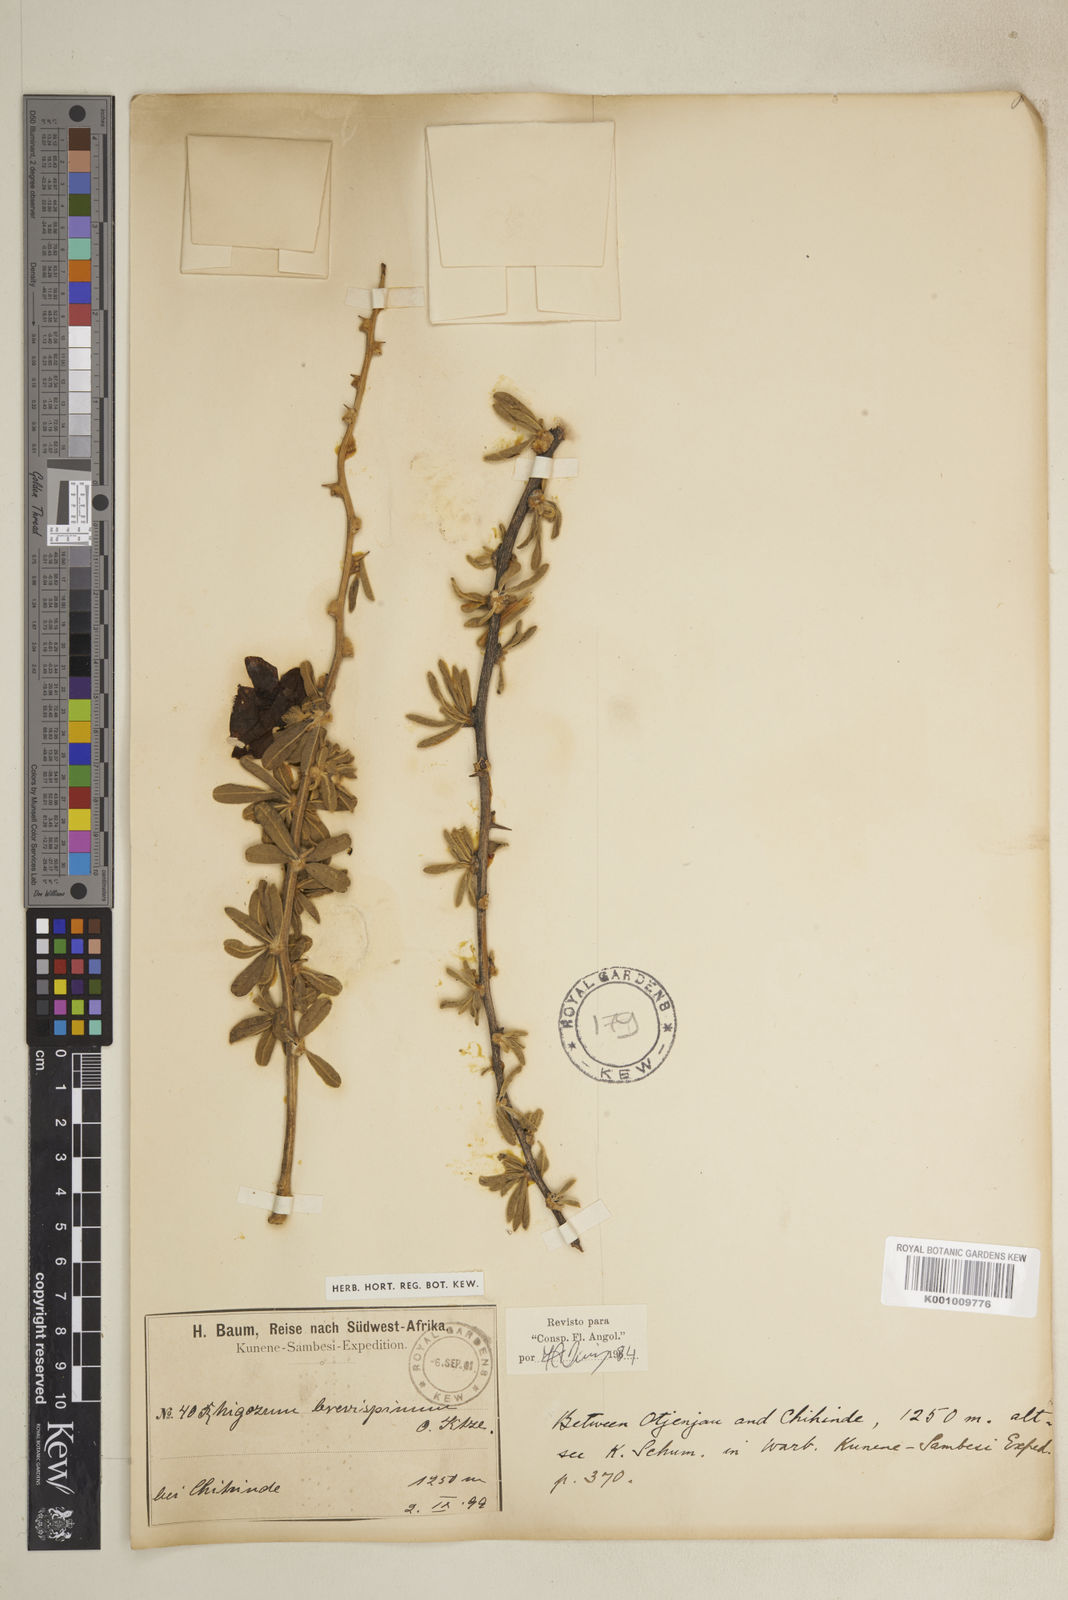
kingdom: Plantae
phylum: Tracheophyta
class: Magnoliopsida
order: Lamiales
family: Bignoniaceae
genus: Rhigozum
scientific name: Rhigozum brevispinosum
